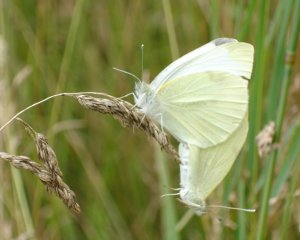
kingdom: Animalia
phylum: Arthropoda
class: Insecta
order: Lepidoptera
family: Pieridae
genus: Pieris
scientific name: Pieris rapae
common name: Cabbage White
